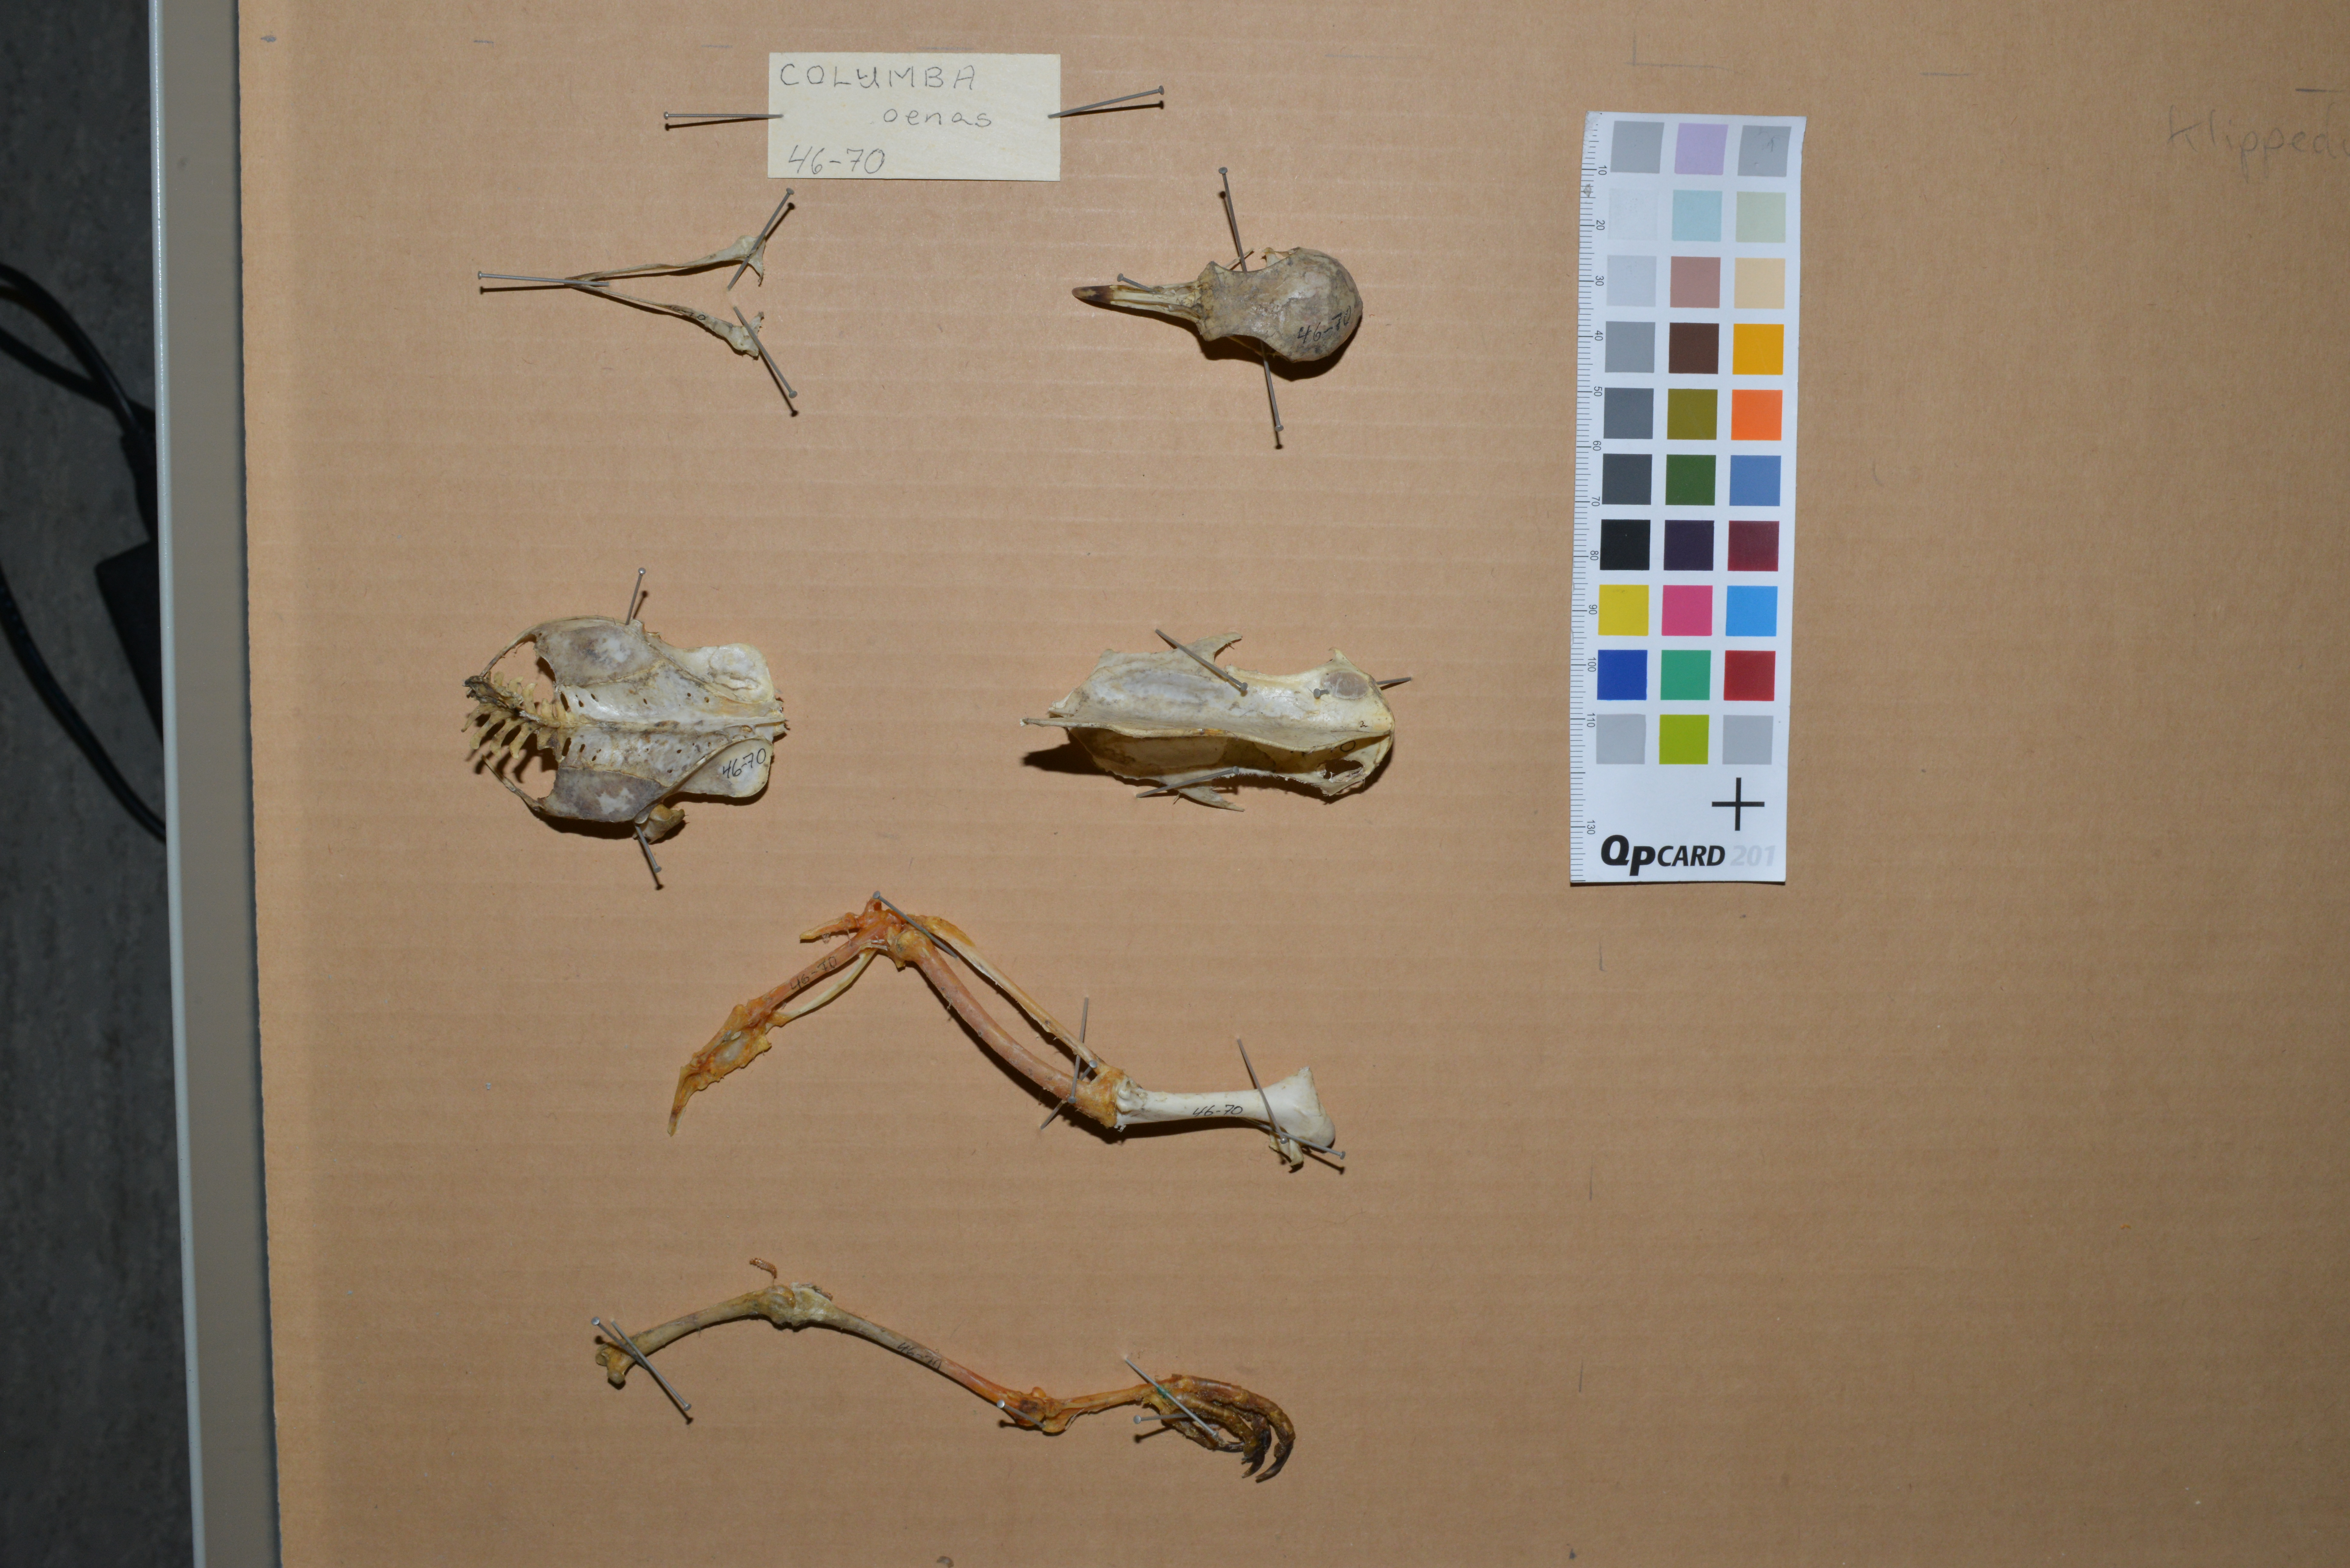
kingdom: Animalia
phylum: Chordata
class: Aves
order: Columbiformes
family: Columbidae
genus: Columba
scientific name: Columba oenas
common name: Stock dove
